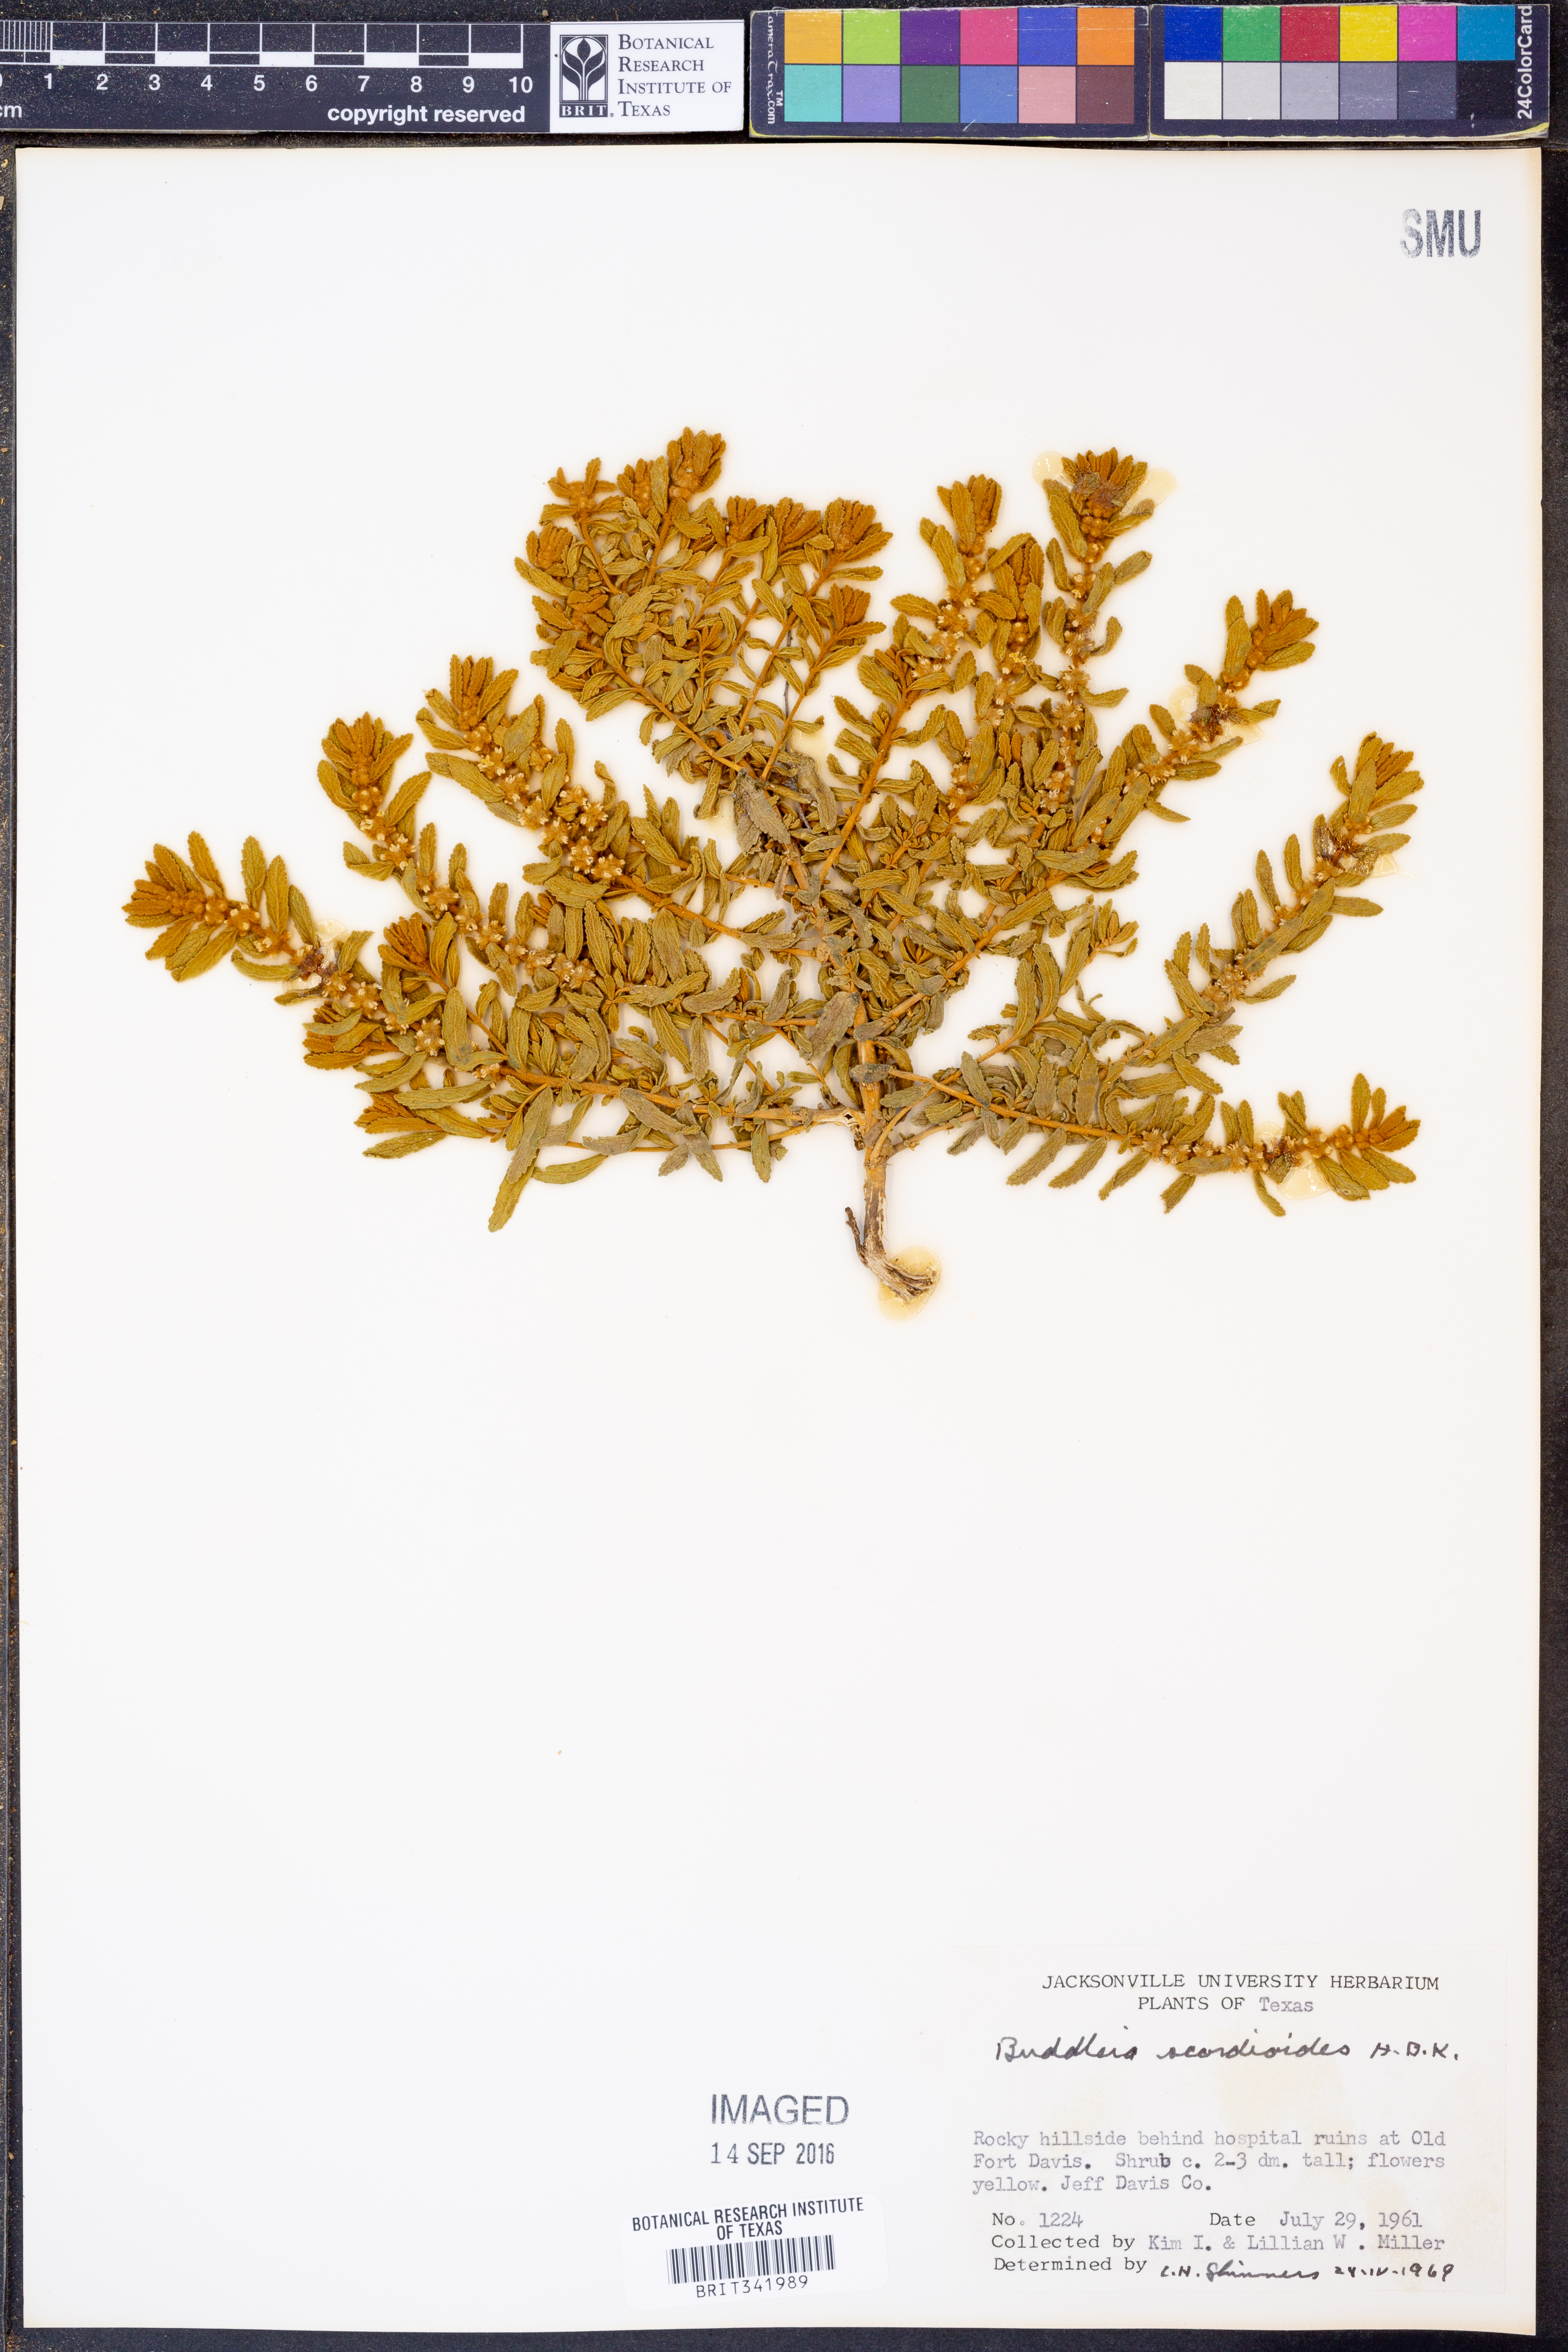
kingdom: Plantae
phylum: Tracheophyta
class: Magnoliopsida
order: Lamiales
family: Scrophulariaceae
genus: Buddleja
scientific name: Buddleja scordioides
